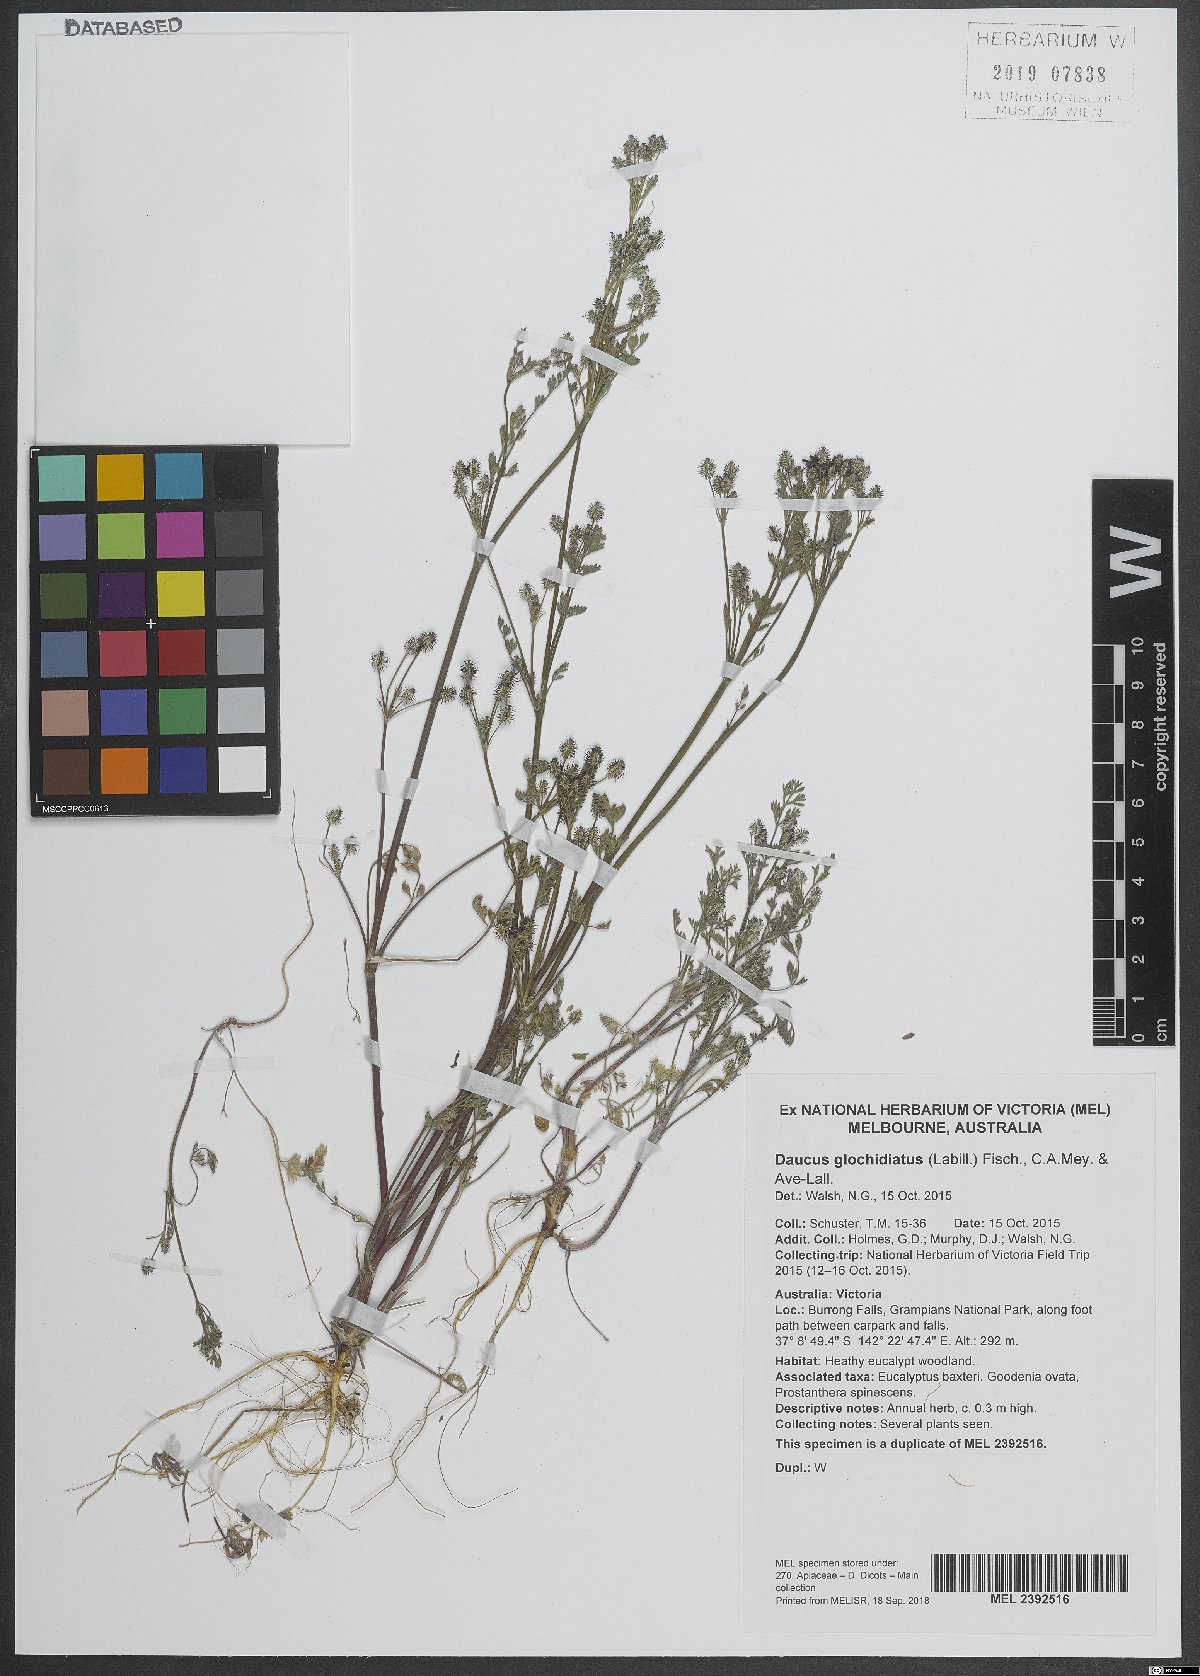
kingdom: Plantae
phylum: Tracheophyta
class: Magnoliopsida
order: Apiales
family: Apiaceae
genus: Daucus
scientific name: Daucus glochidiatus
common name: Australian carrot
